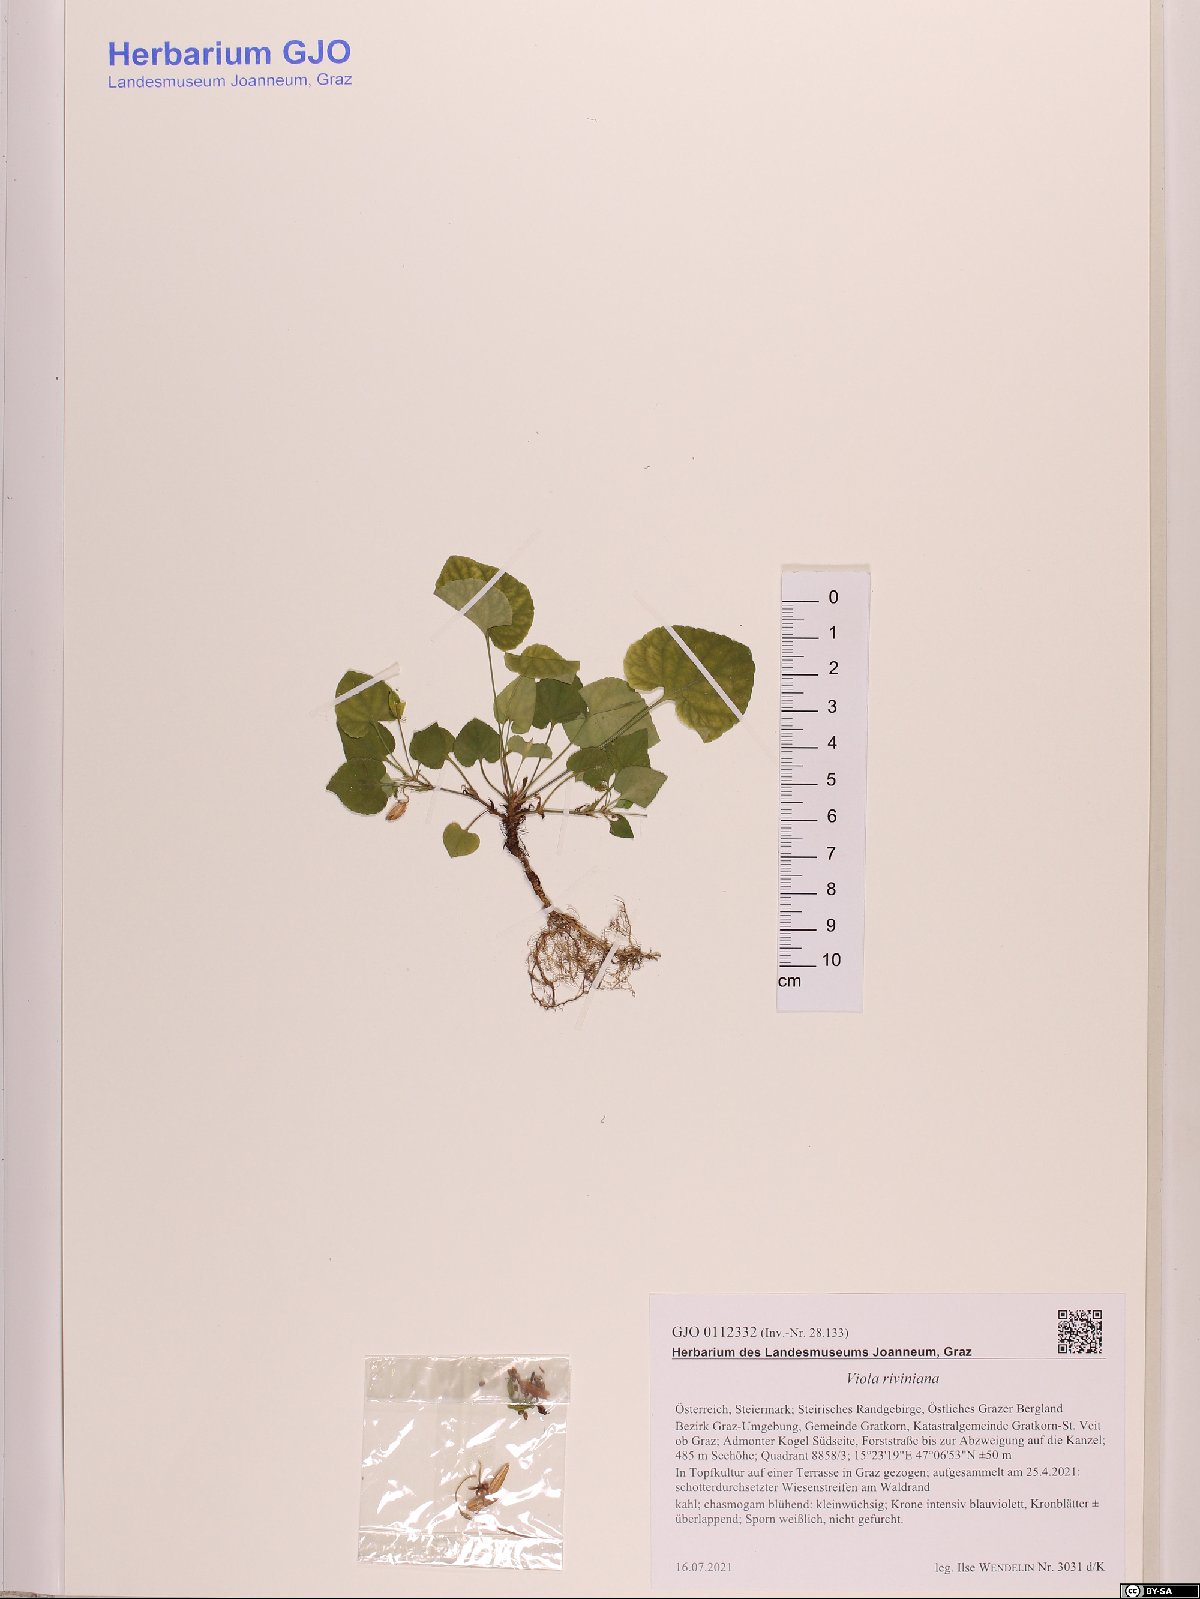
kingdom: Plantae
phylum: Tracheophyta
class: Magnoliopsida
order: Malpighiales
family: Violaceae
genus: Viola
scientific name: Viola riviniana
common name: Common dog-violet
